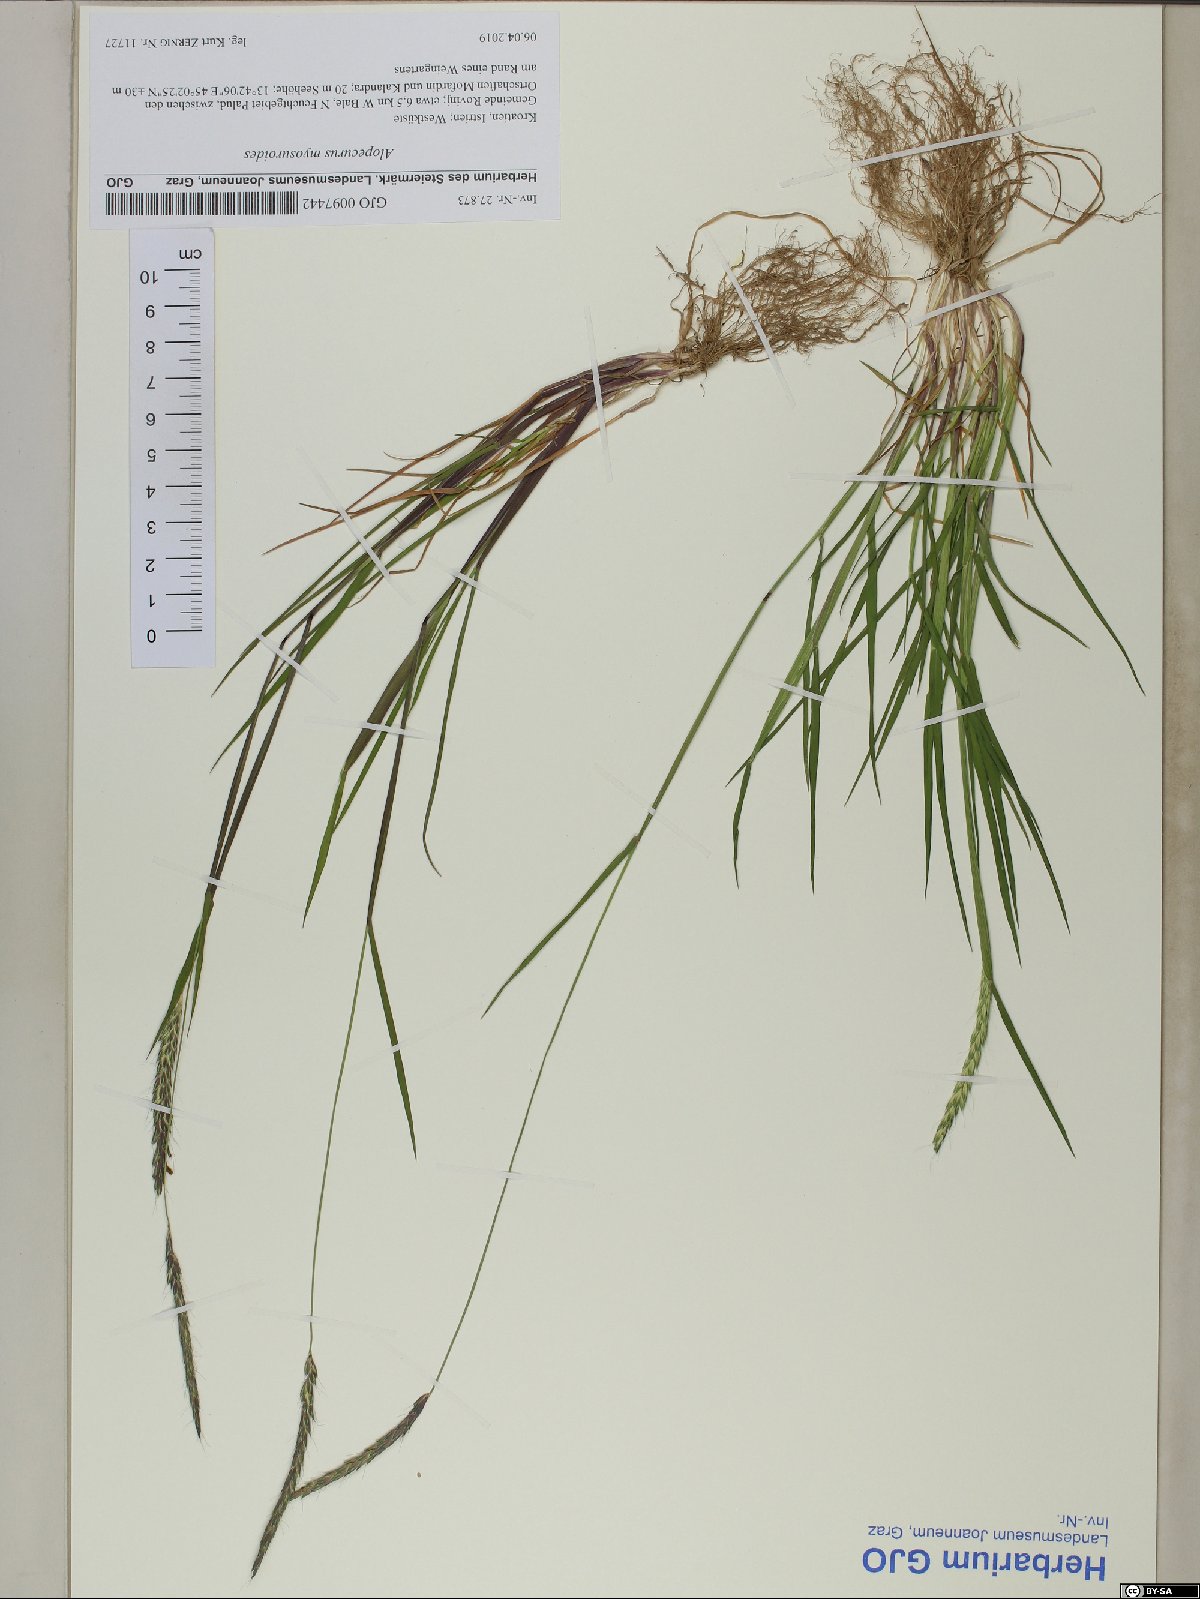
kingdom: Plantae
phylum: Tracheophyta
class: Liliopsida
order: Poales
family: Poaceae
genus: Alopecurus
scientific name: Alopecurus myosuroides
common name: Black-grass
